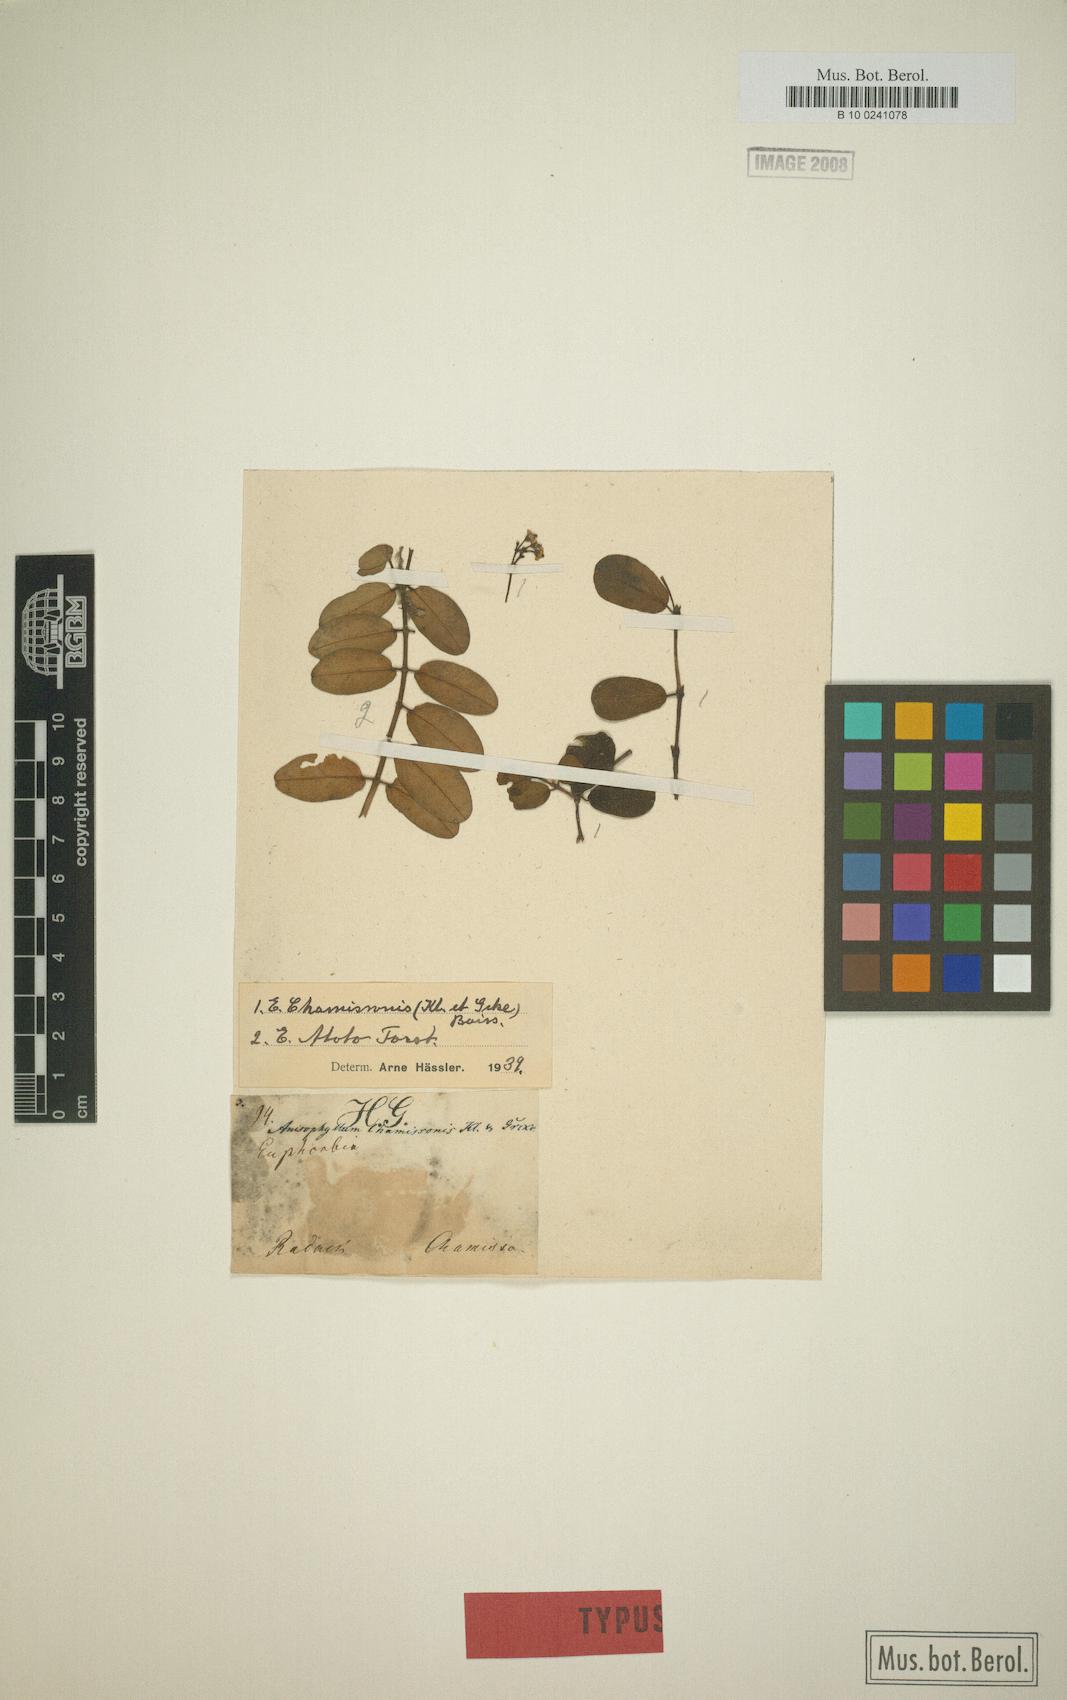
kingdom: Plantae
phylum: Tracheophyta
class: Magnoliopsida
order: Malpighiales
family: Euphorbiaceae
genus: Euphorbia
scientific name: Euphorbia chamissonis
